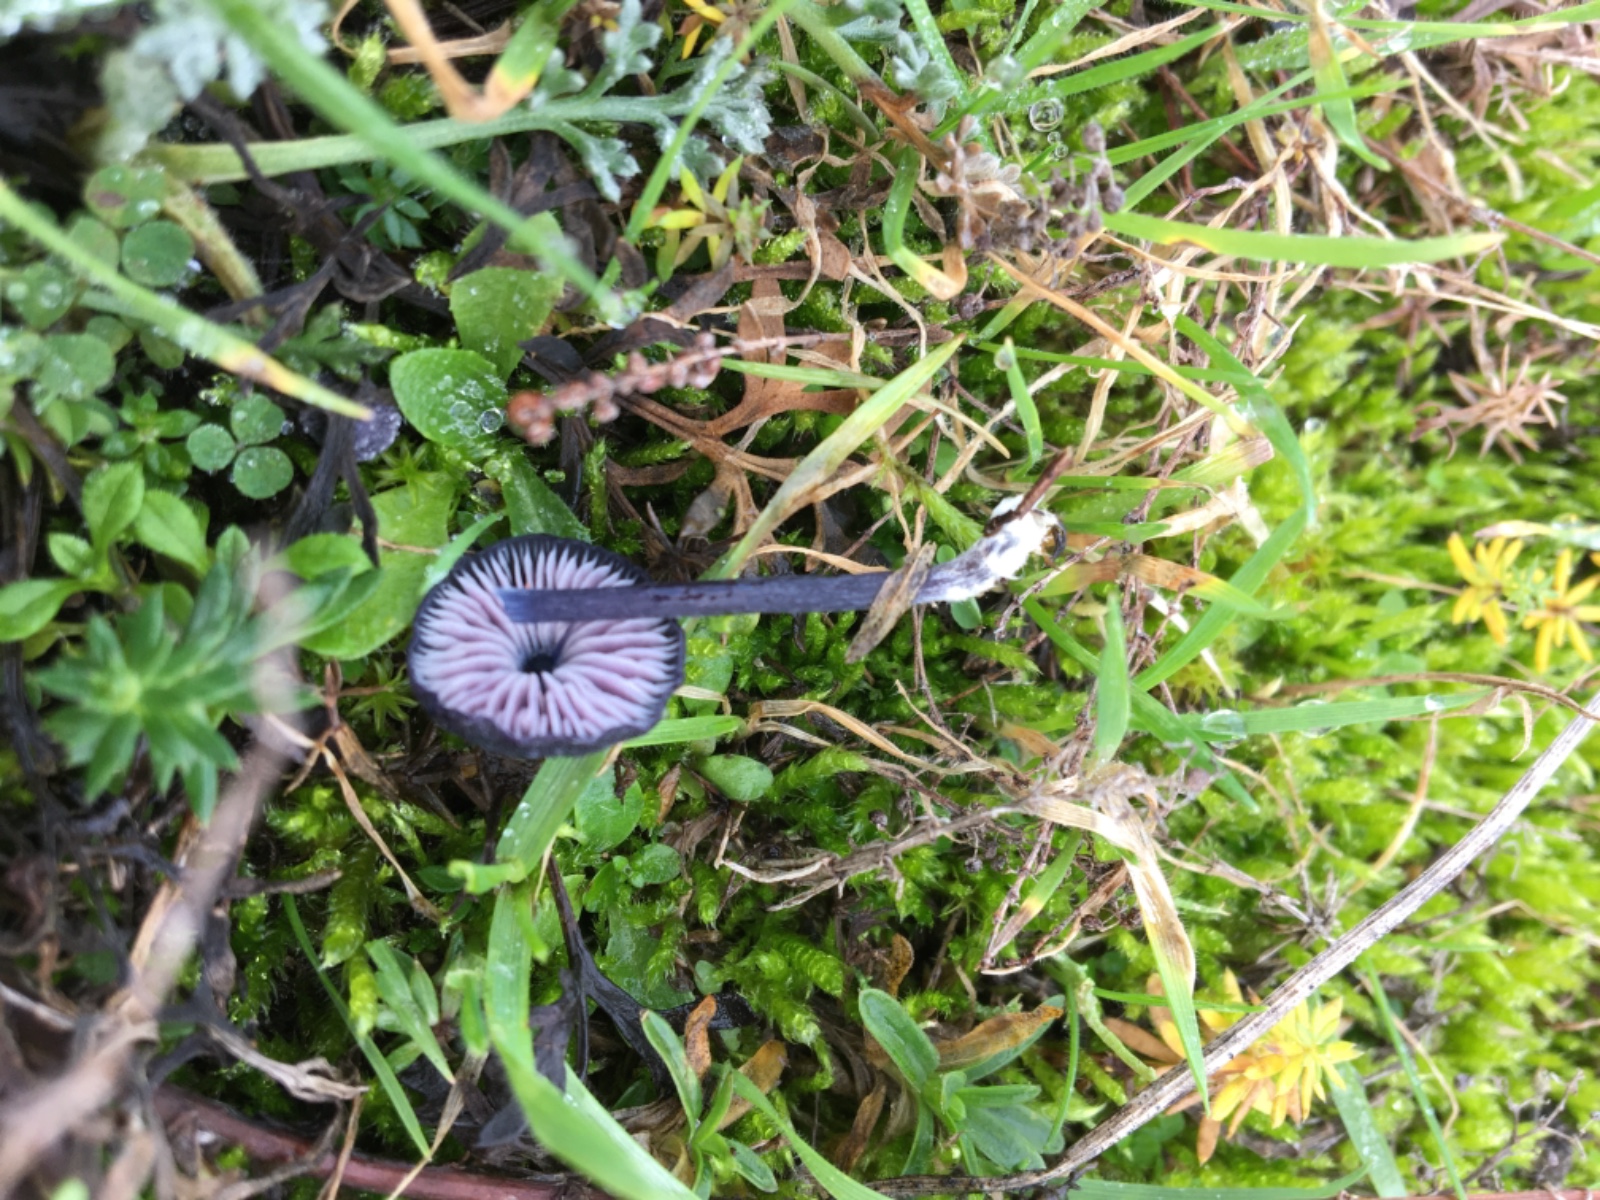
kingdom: Fungi
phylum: Basidiomycota
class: Agaricomycetes
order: Agaricales
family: Entolomataceae
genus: Entoloma
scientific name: Entoloma chalybeum
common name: blåbladet rødblad
